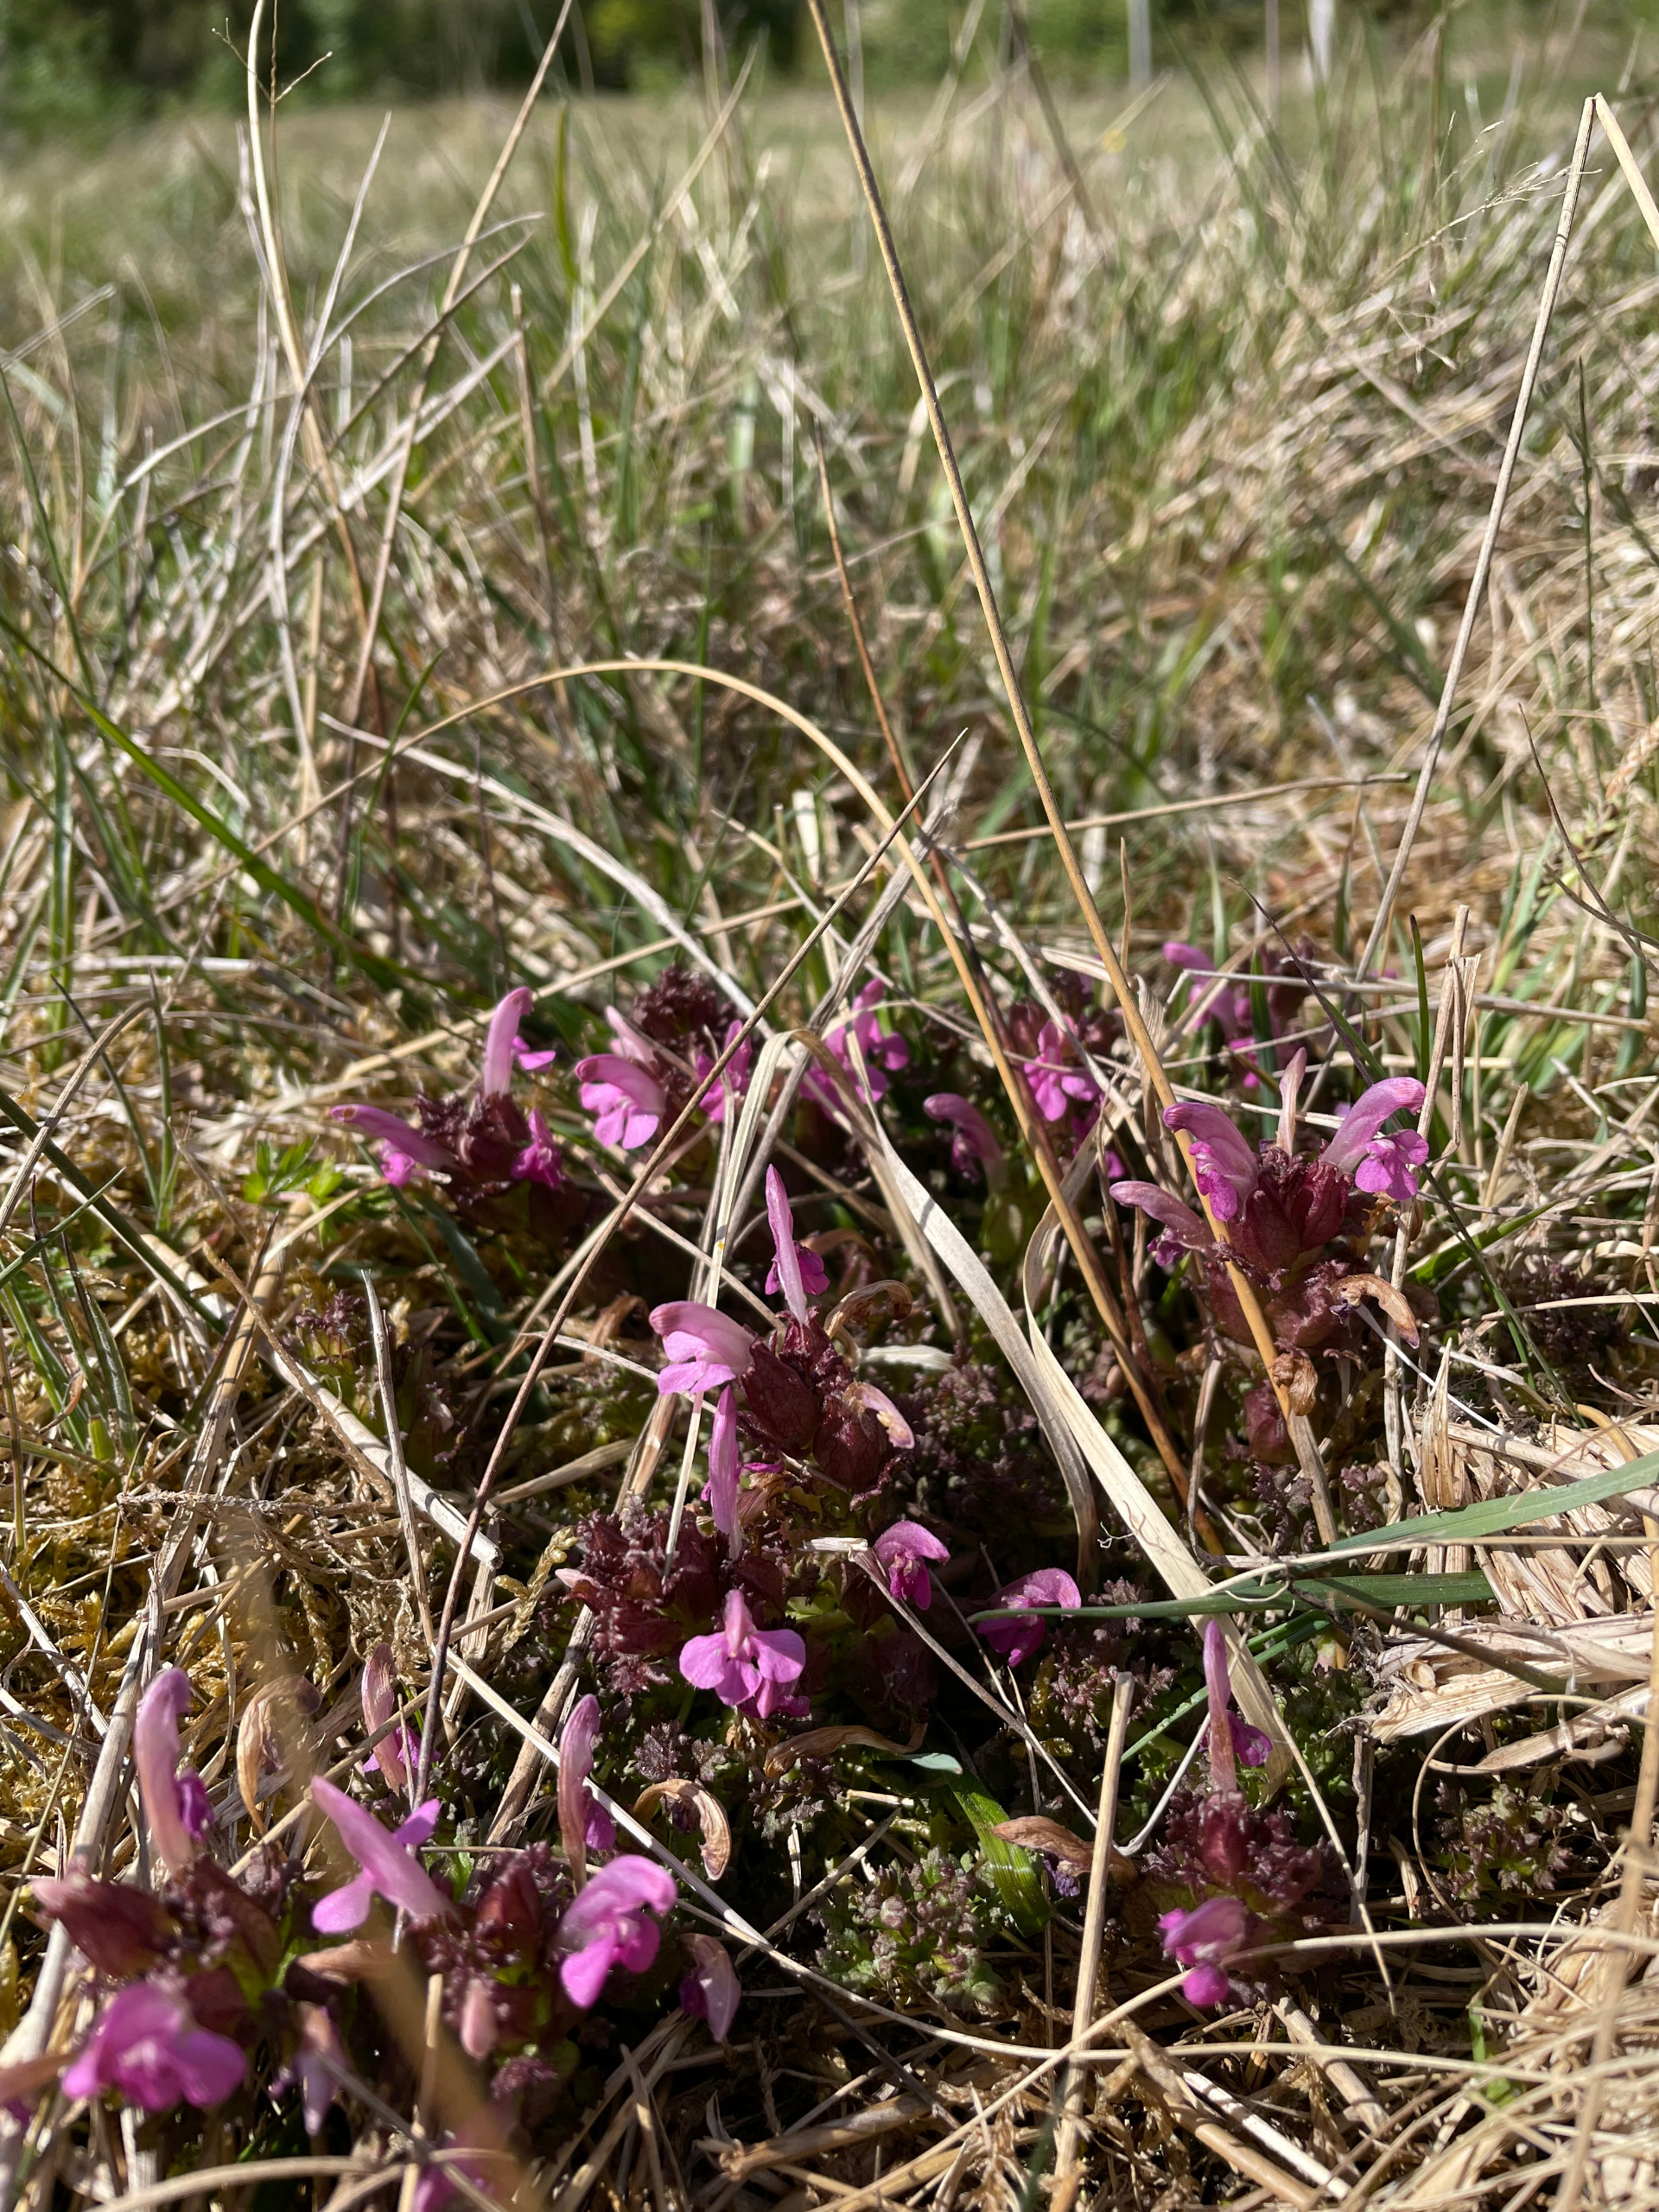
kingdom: Plantae
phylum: Tracheophyta
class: Magnoliopsida
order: Lamiales
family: Orobanchaceae
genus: Pedicularis
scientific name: Pedicularis sylvatica
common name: Mose-troldurt
